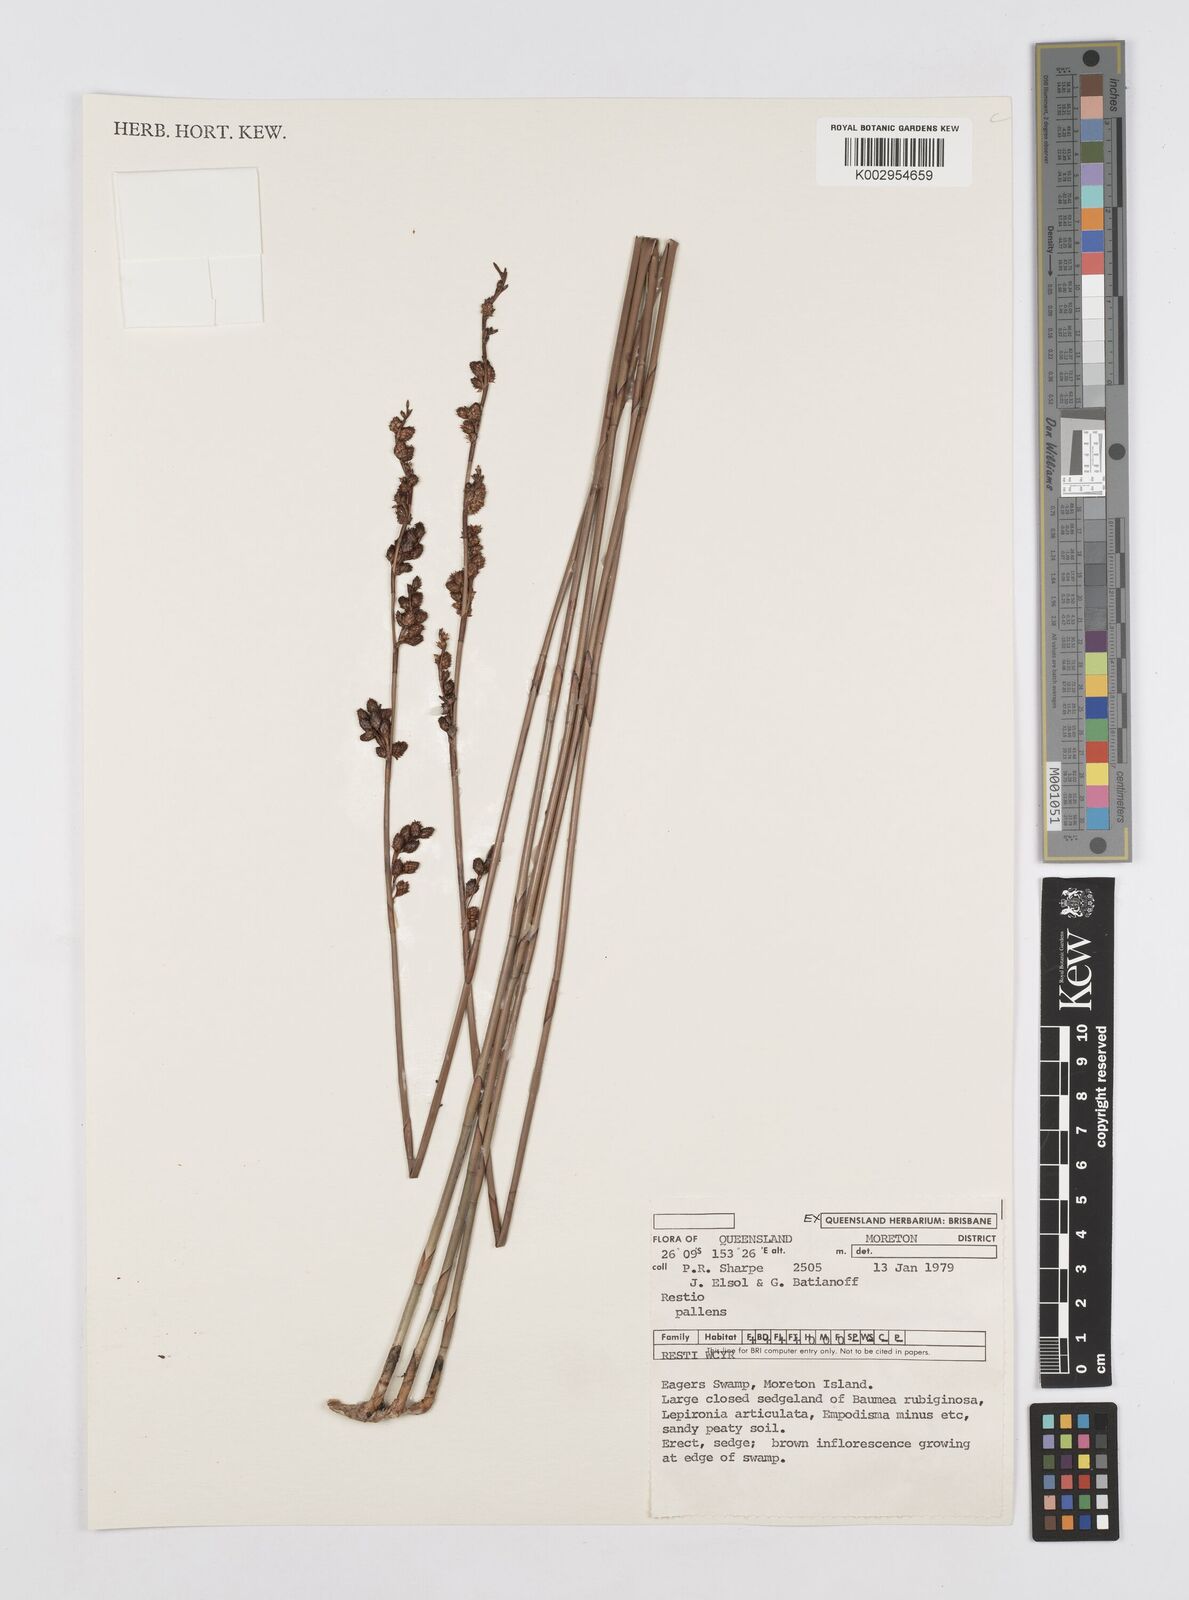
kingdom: Plantae
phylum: Tracheophyta
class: Liliopsida
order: Poales
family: Restionaceae
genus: Baloskion
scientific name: Baloskion pallens
